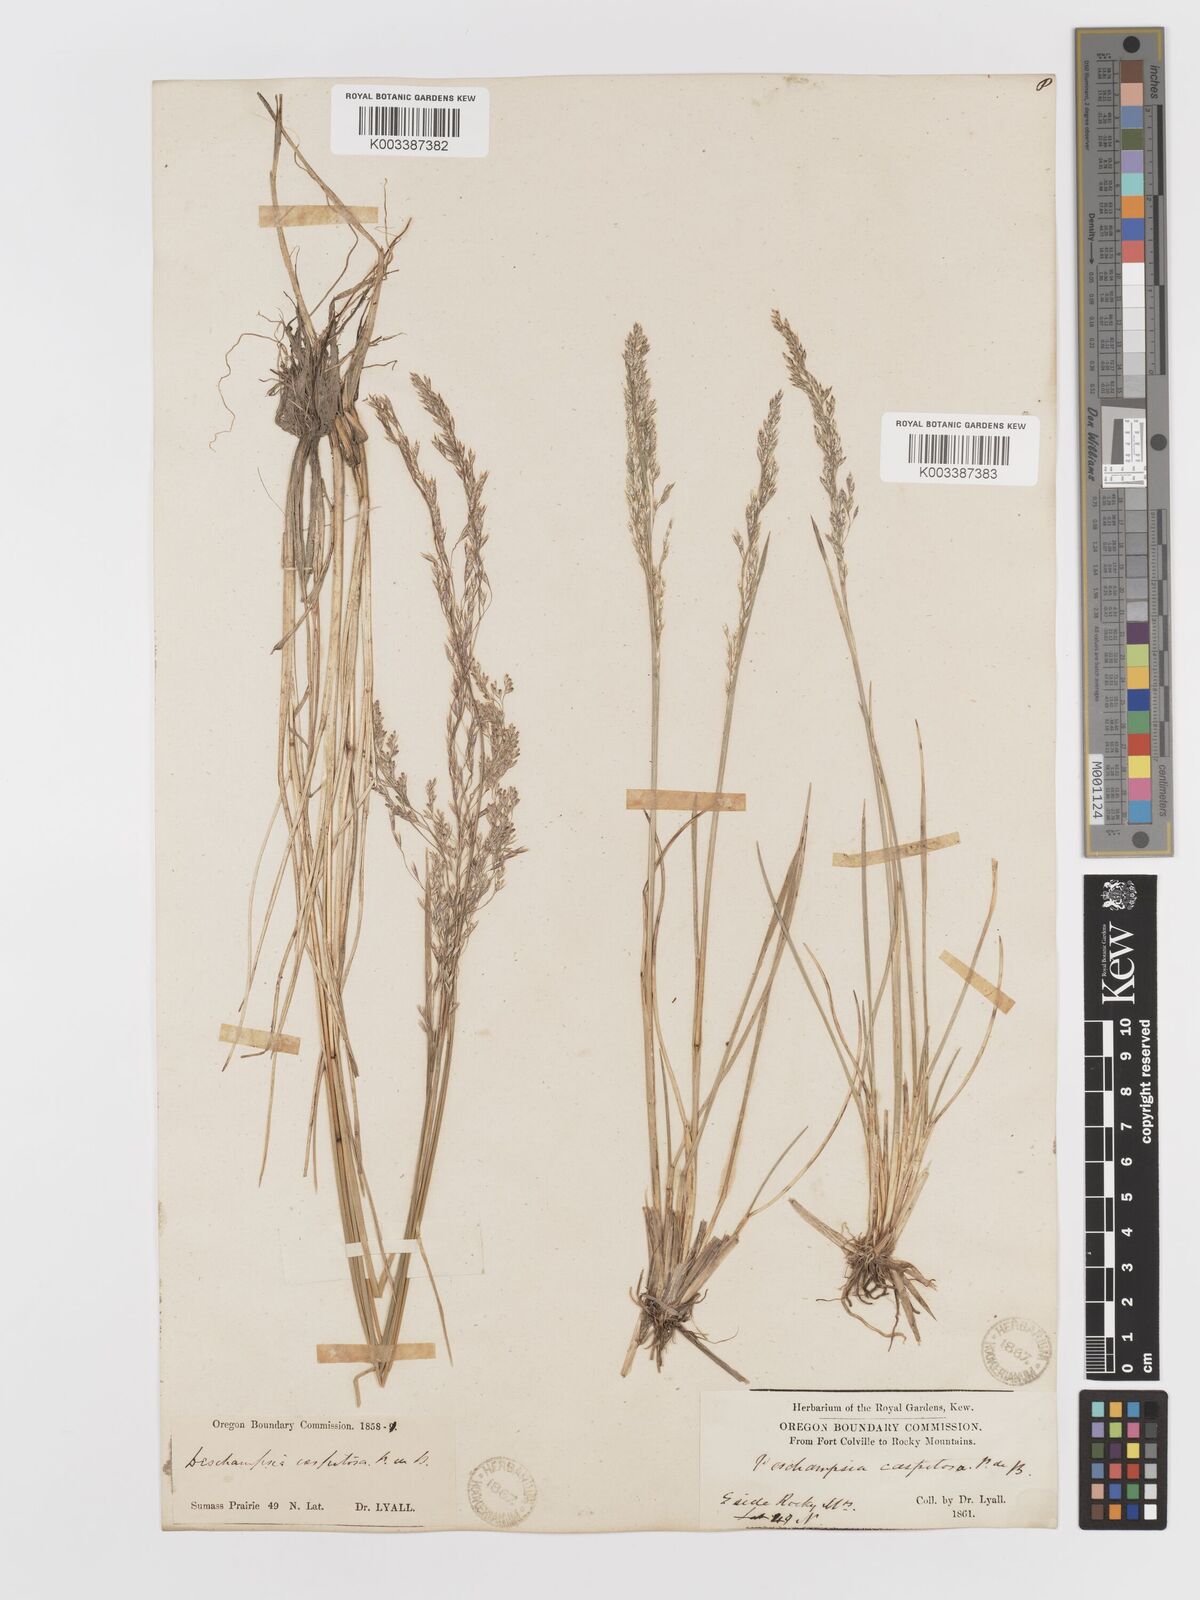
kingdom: Plantae
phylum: Tracheophyta
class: Liliopsida
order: Poales
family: Poaceae
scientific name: Poaceae
